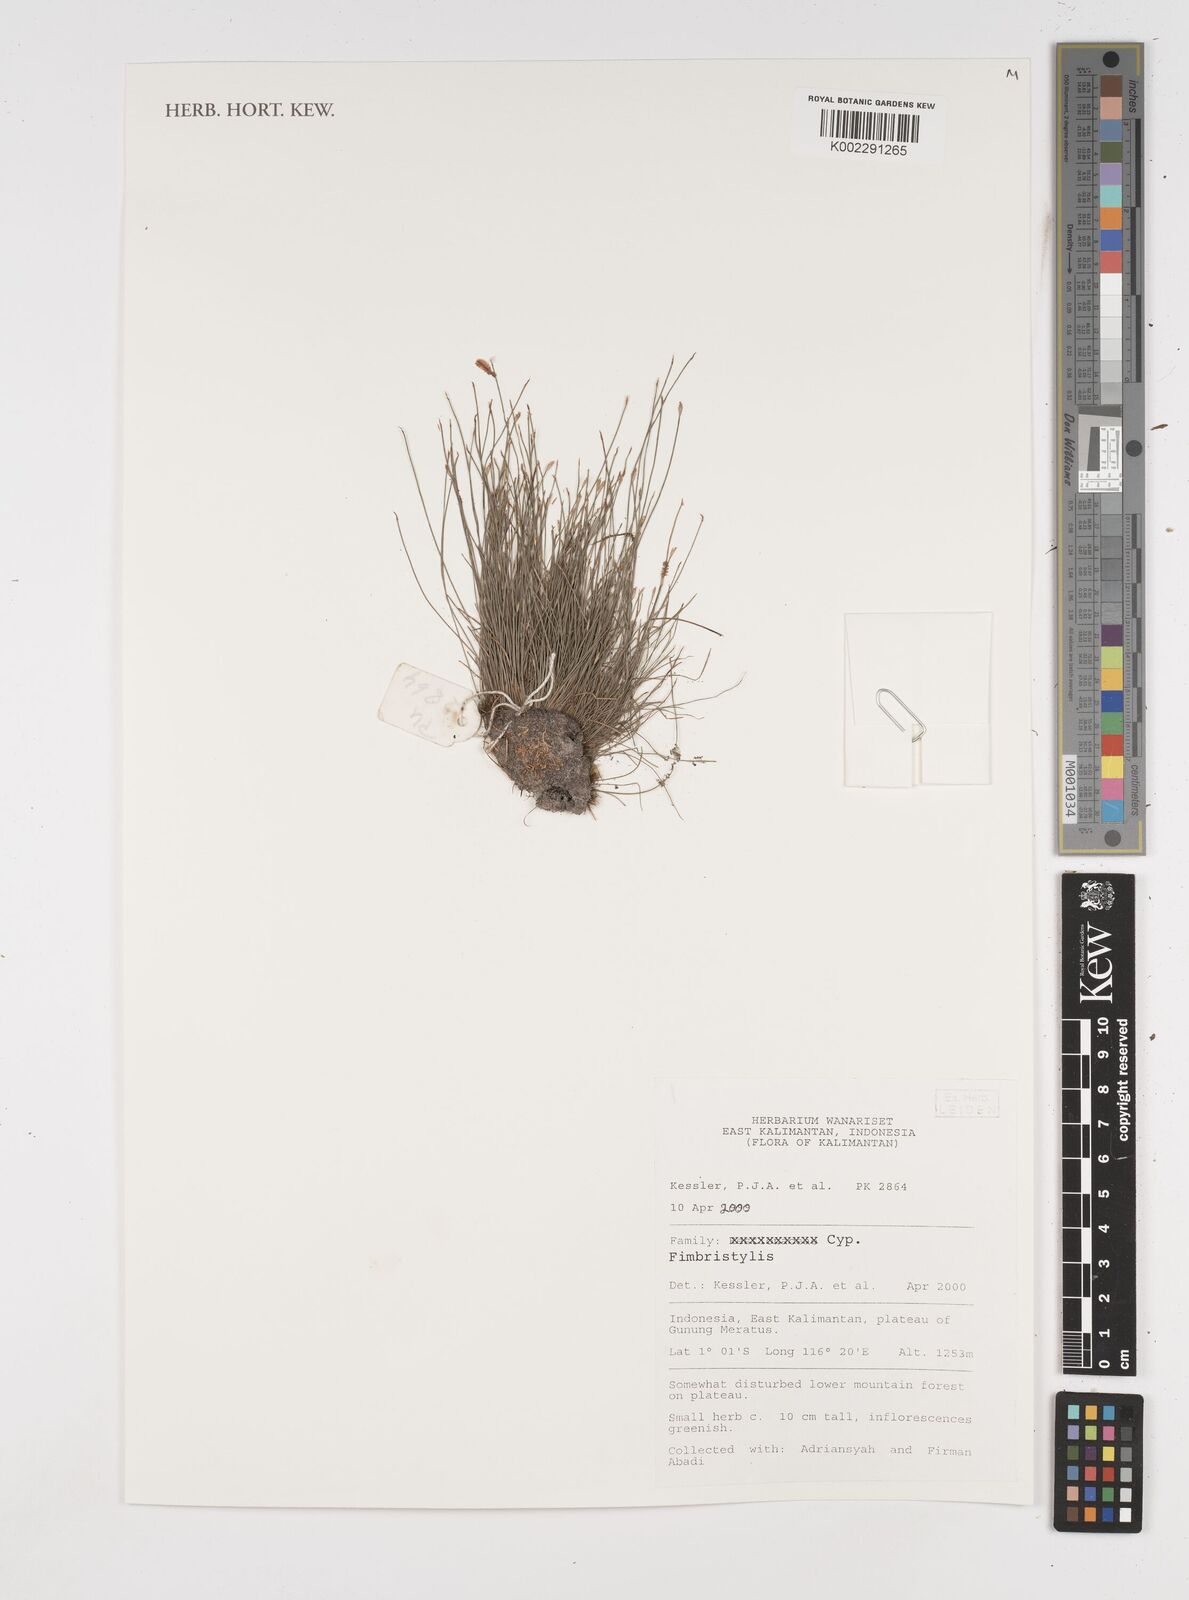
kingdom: Plantae
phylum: Tracheophyta
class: Liliopsida
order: Poales
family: Cyperaceae
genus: Fimbristylis
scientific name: Fimbristylis
